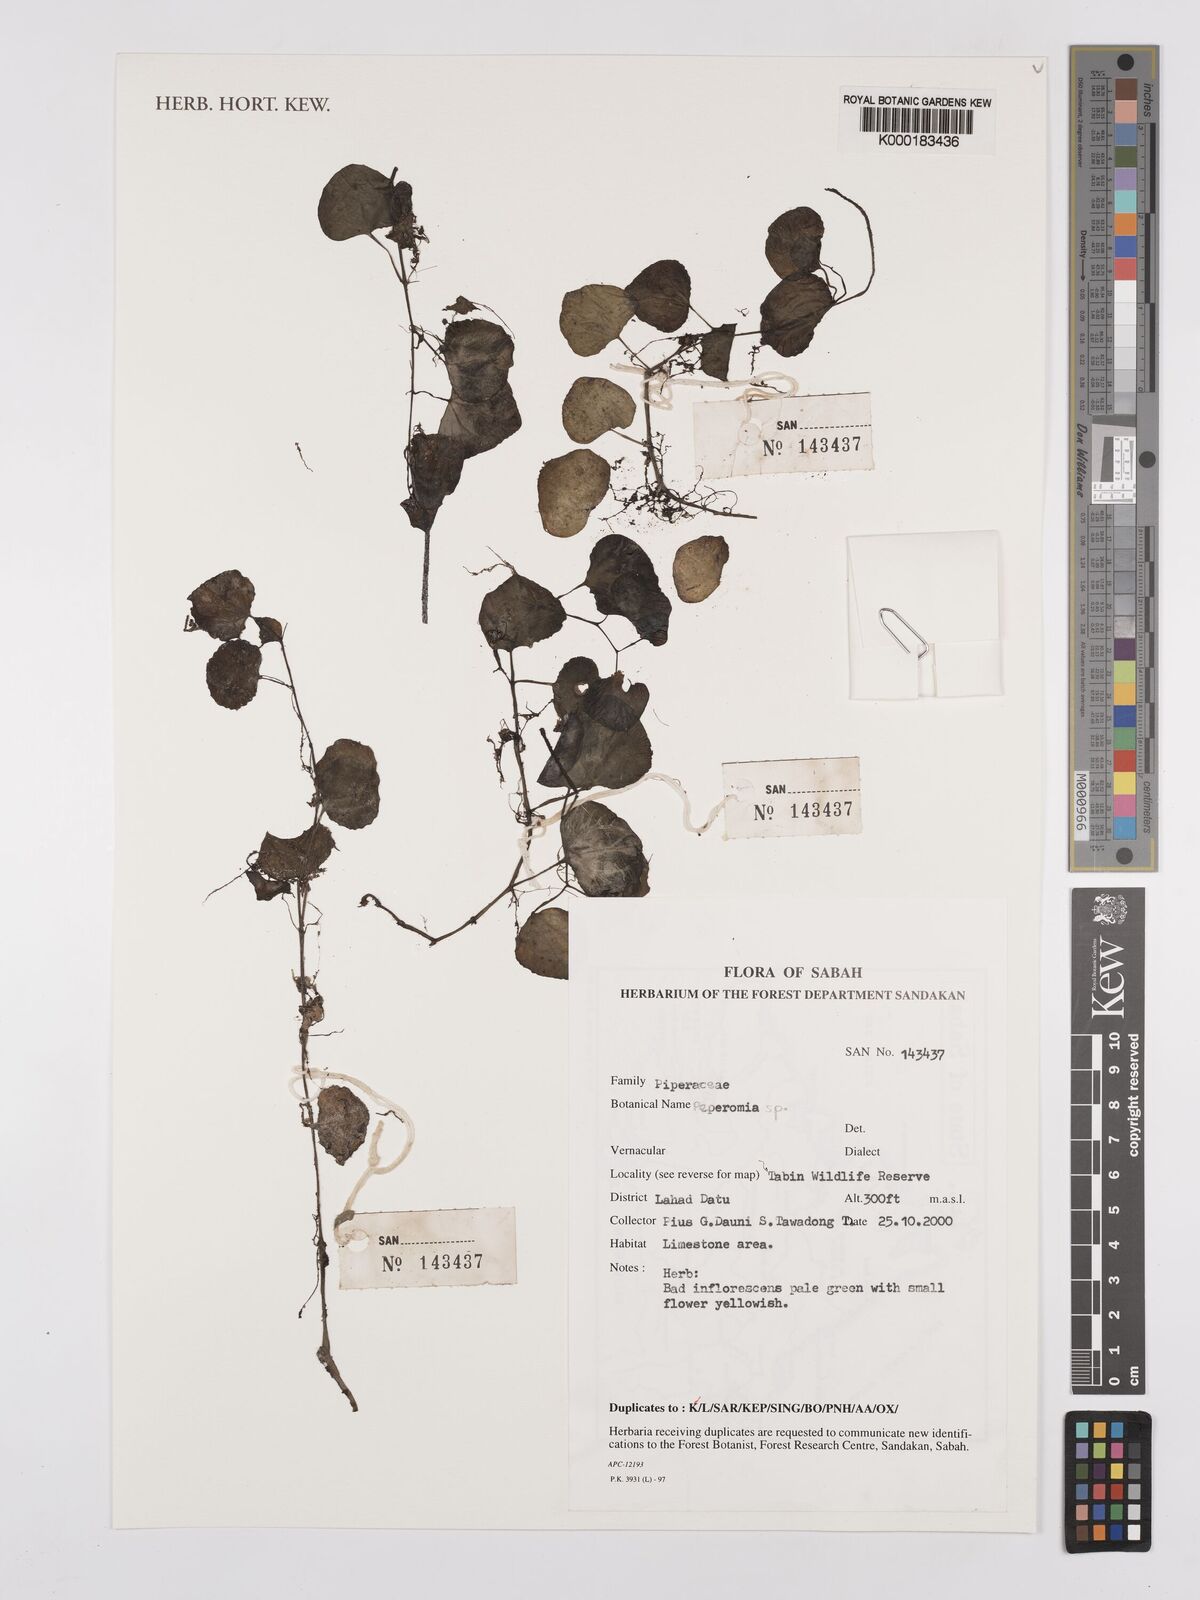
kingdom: Plantae
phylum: Tracheophyta
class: Magnoliopsida
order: Piperales
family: Piperaceae
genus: Peperomia
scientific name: Peperomia
